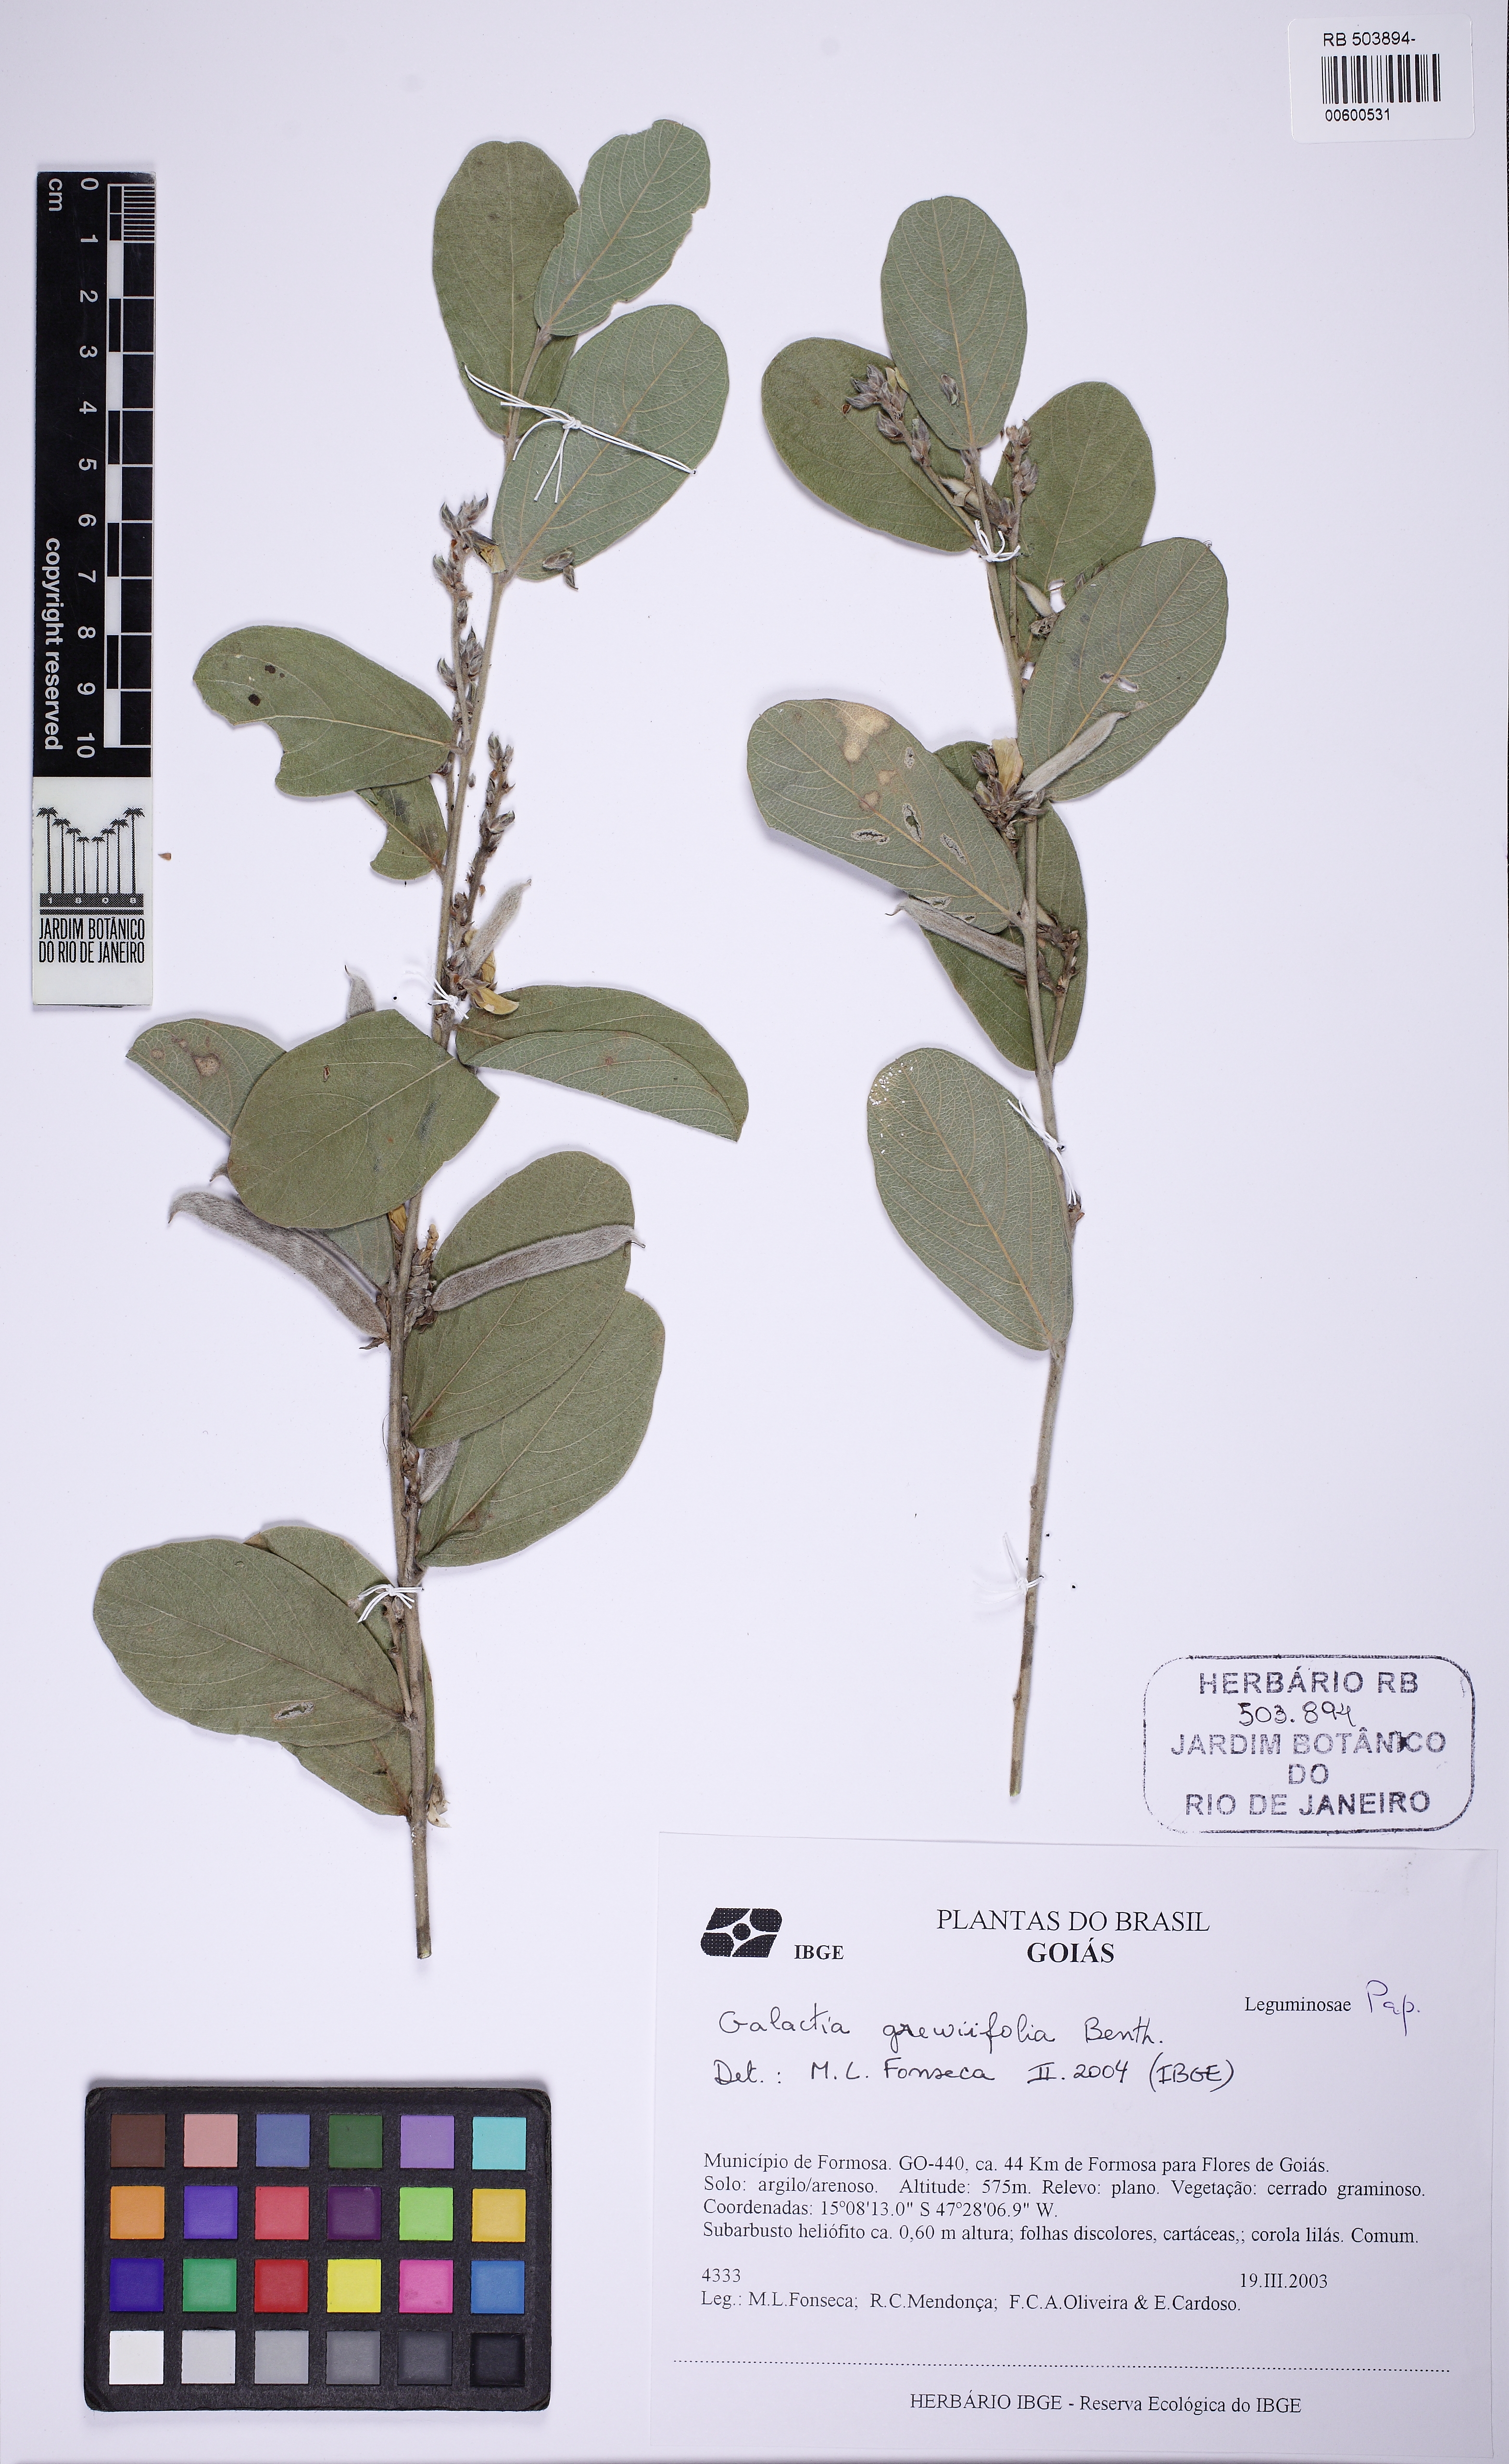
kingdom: Plantae
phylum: Tracheophyta
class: Magnoliopsida
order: Fabales
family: Fabaceae
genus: Cerradicola
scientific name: Cerradicola grewiifolia
